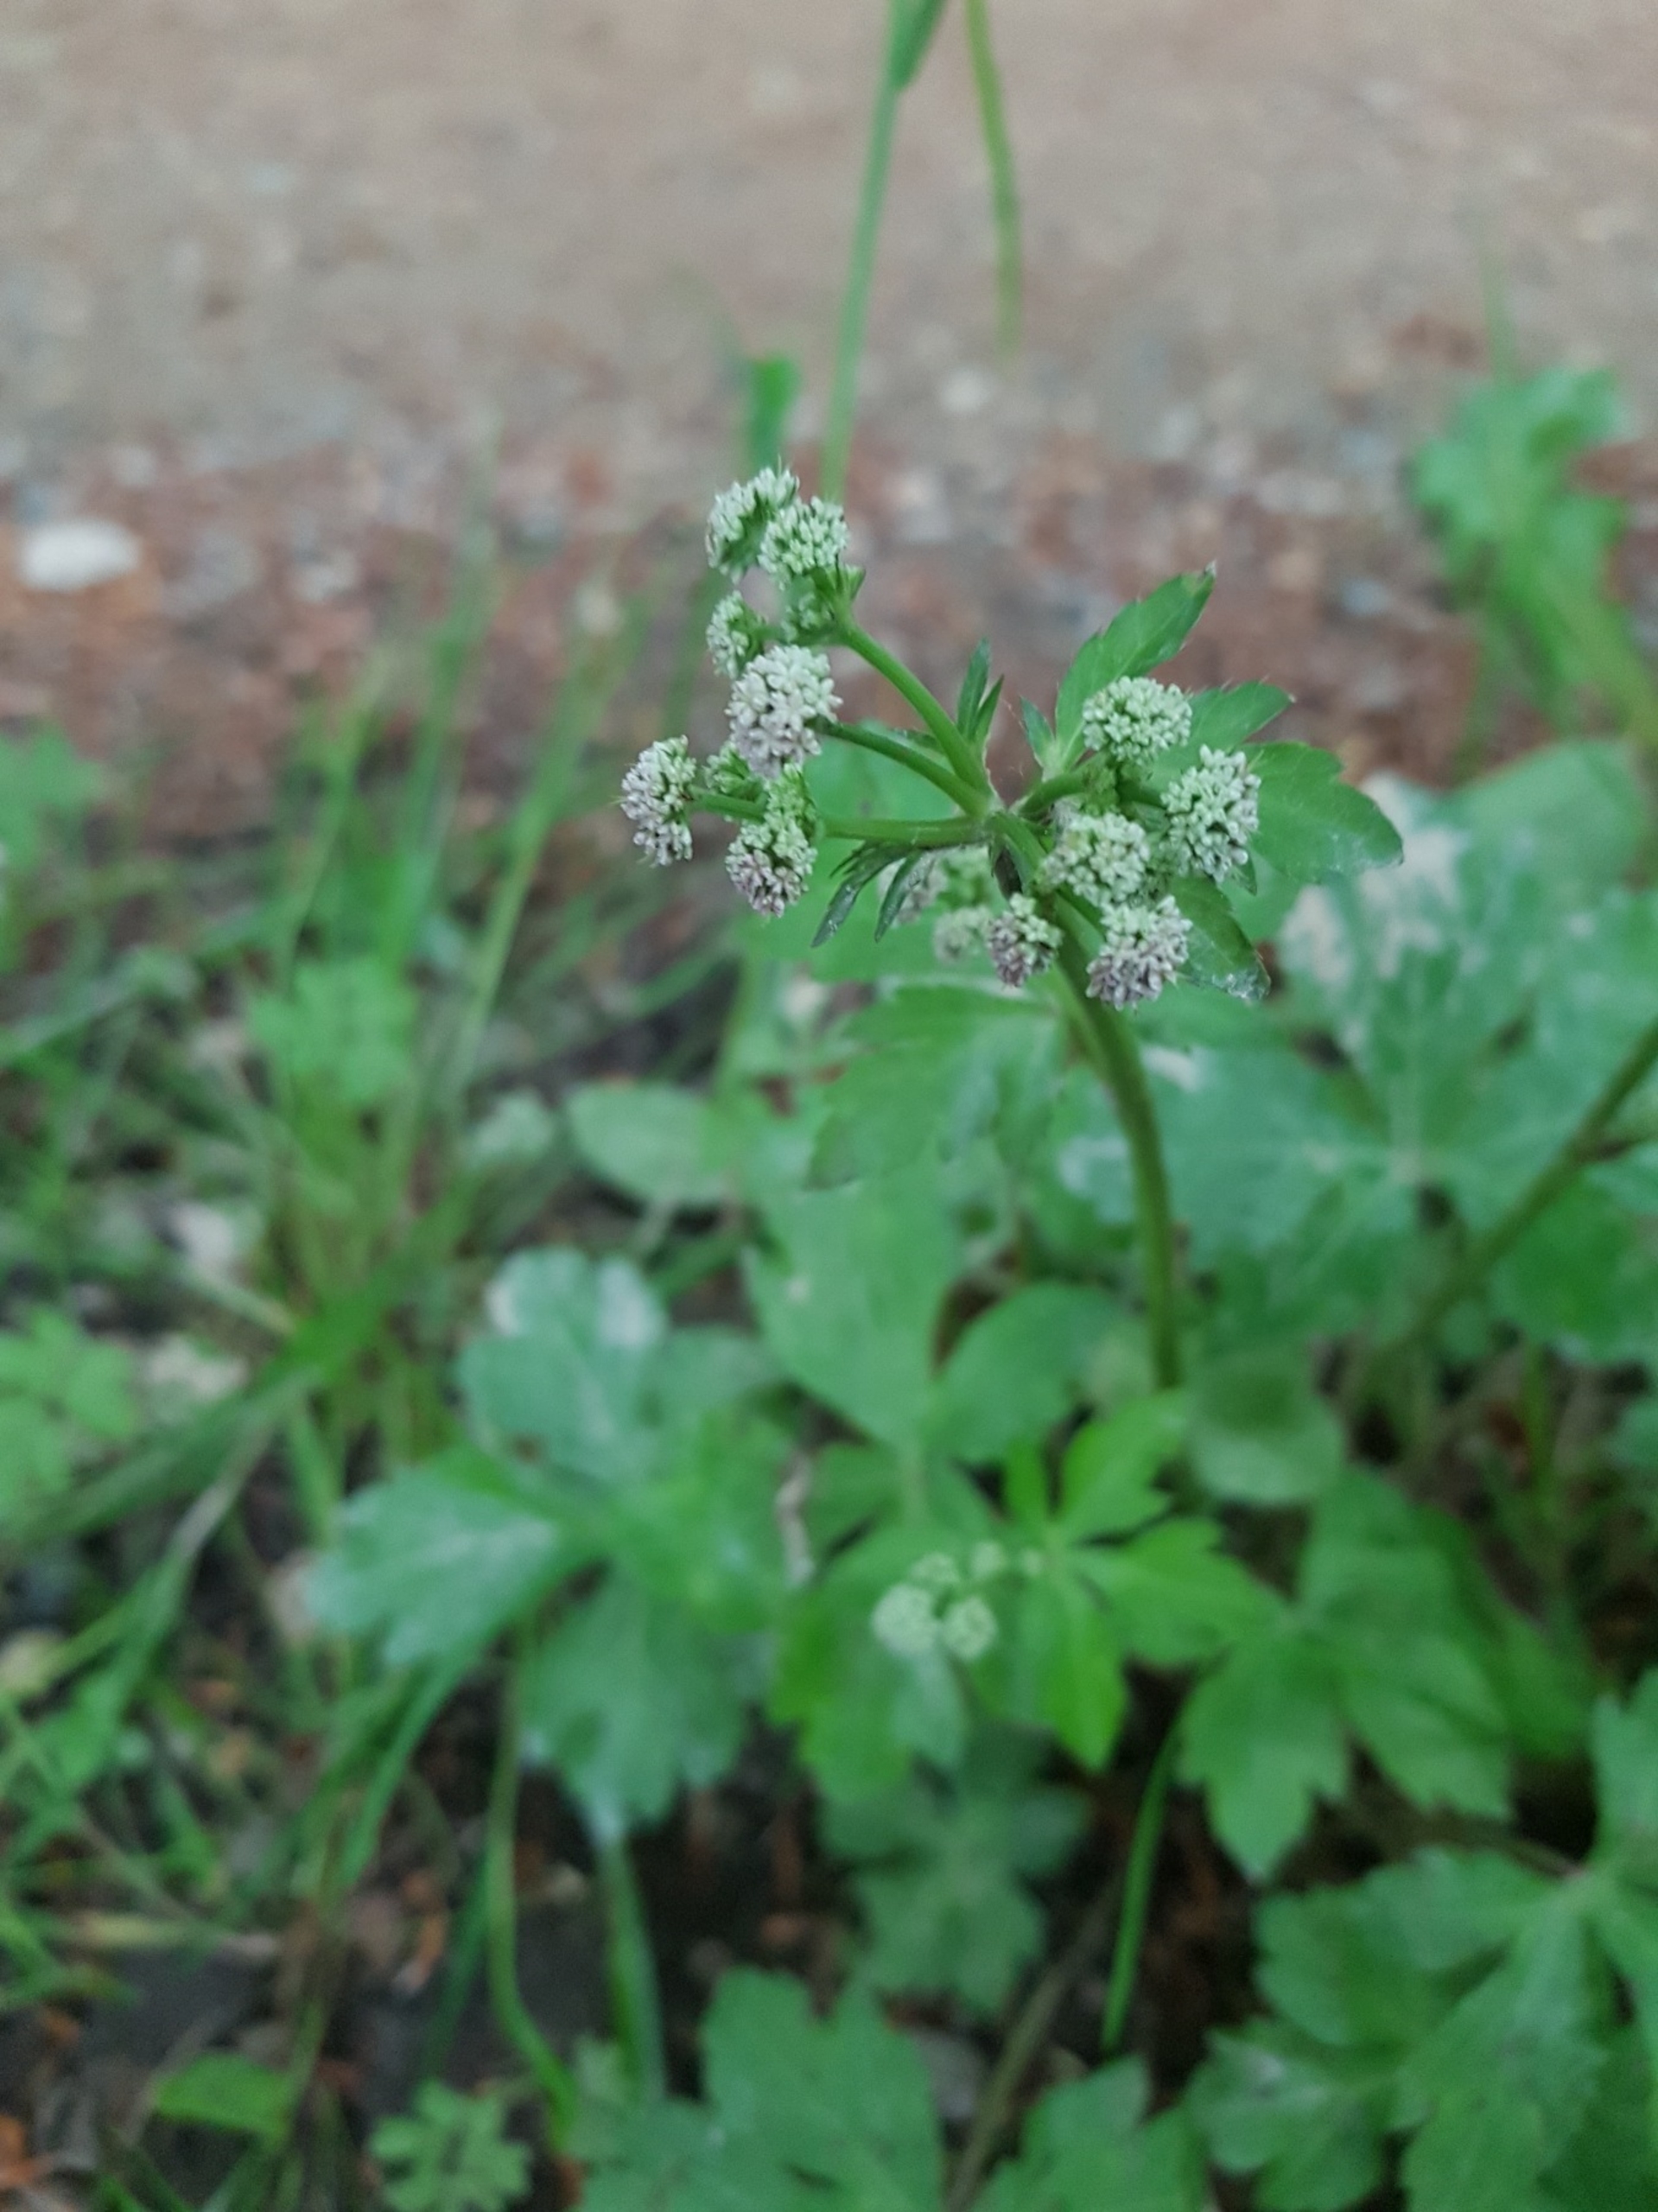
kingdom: Plantae
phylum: Tracheophyta
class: Magnoliopsida
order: Apiales
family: Apiaceae
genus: Sanicula
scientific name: Sanicula europaea
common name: Sanikel
